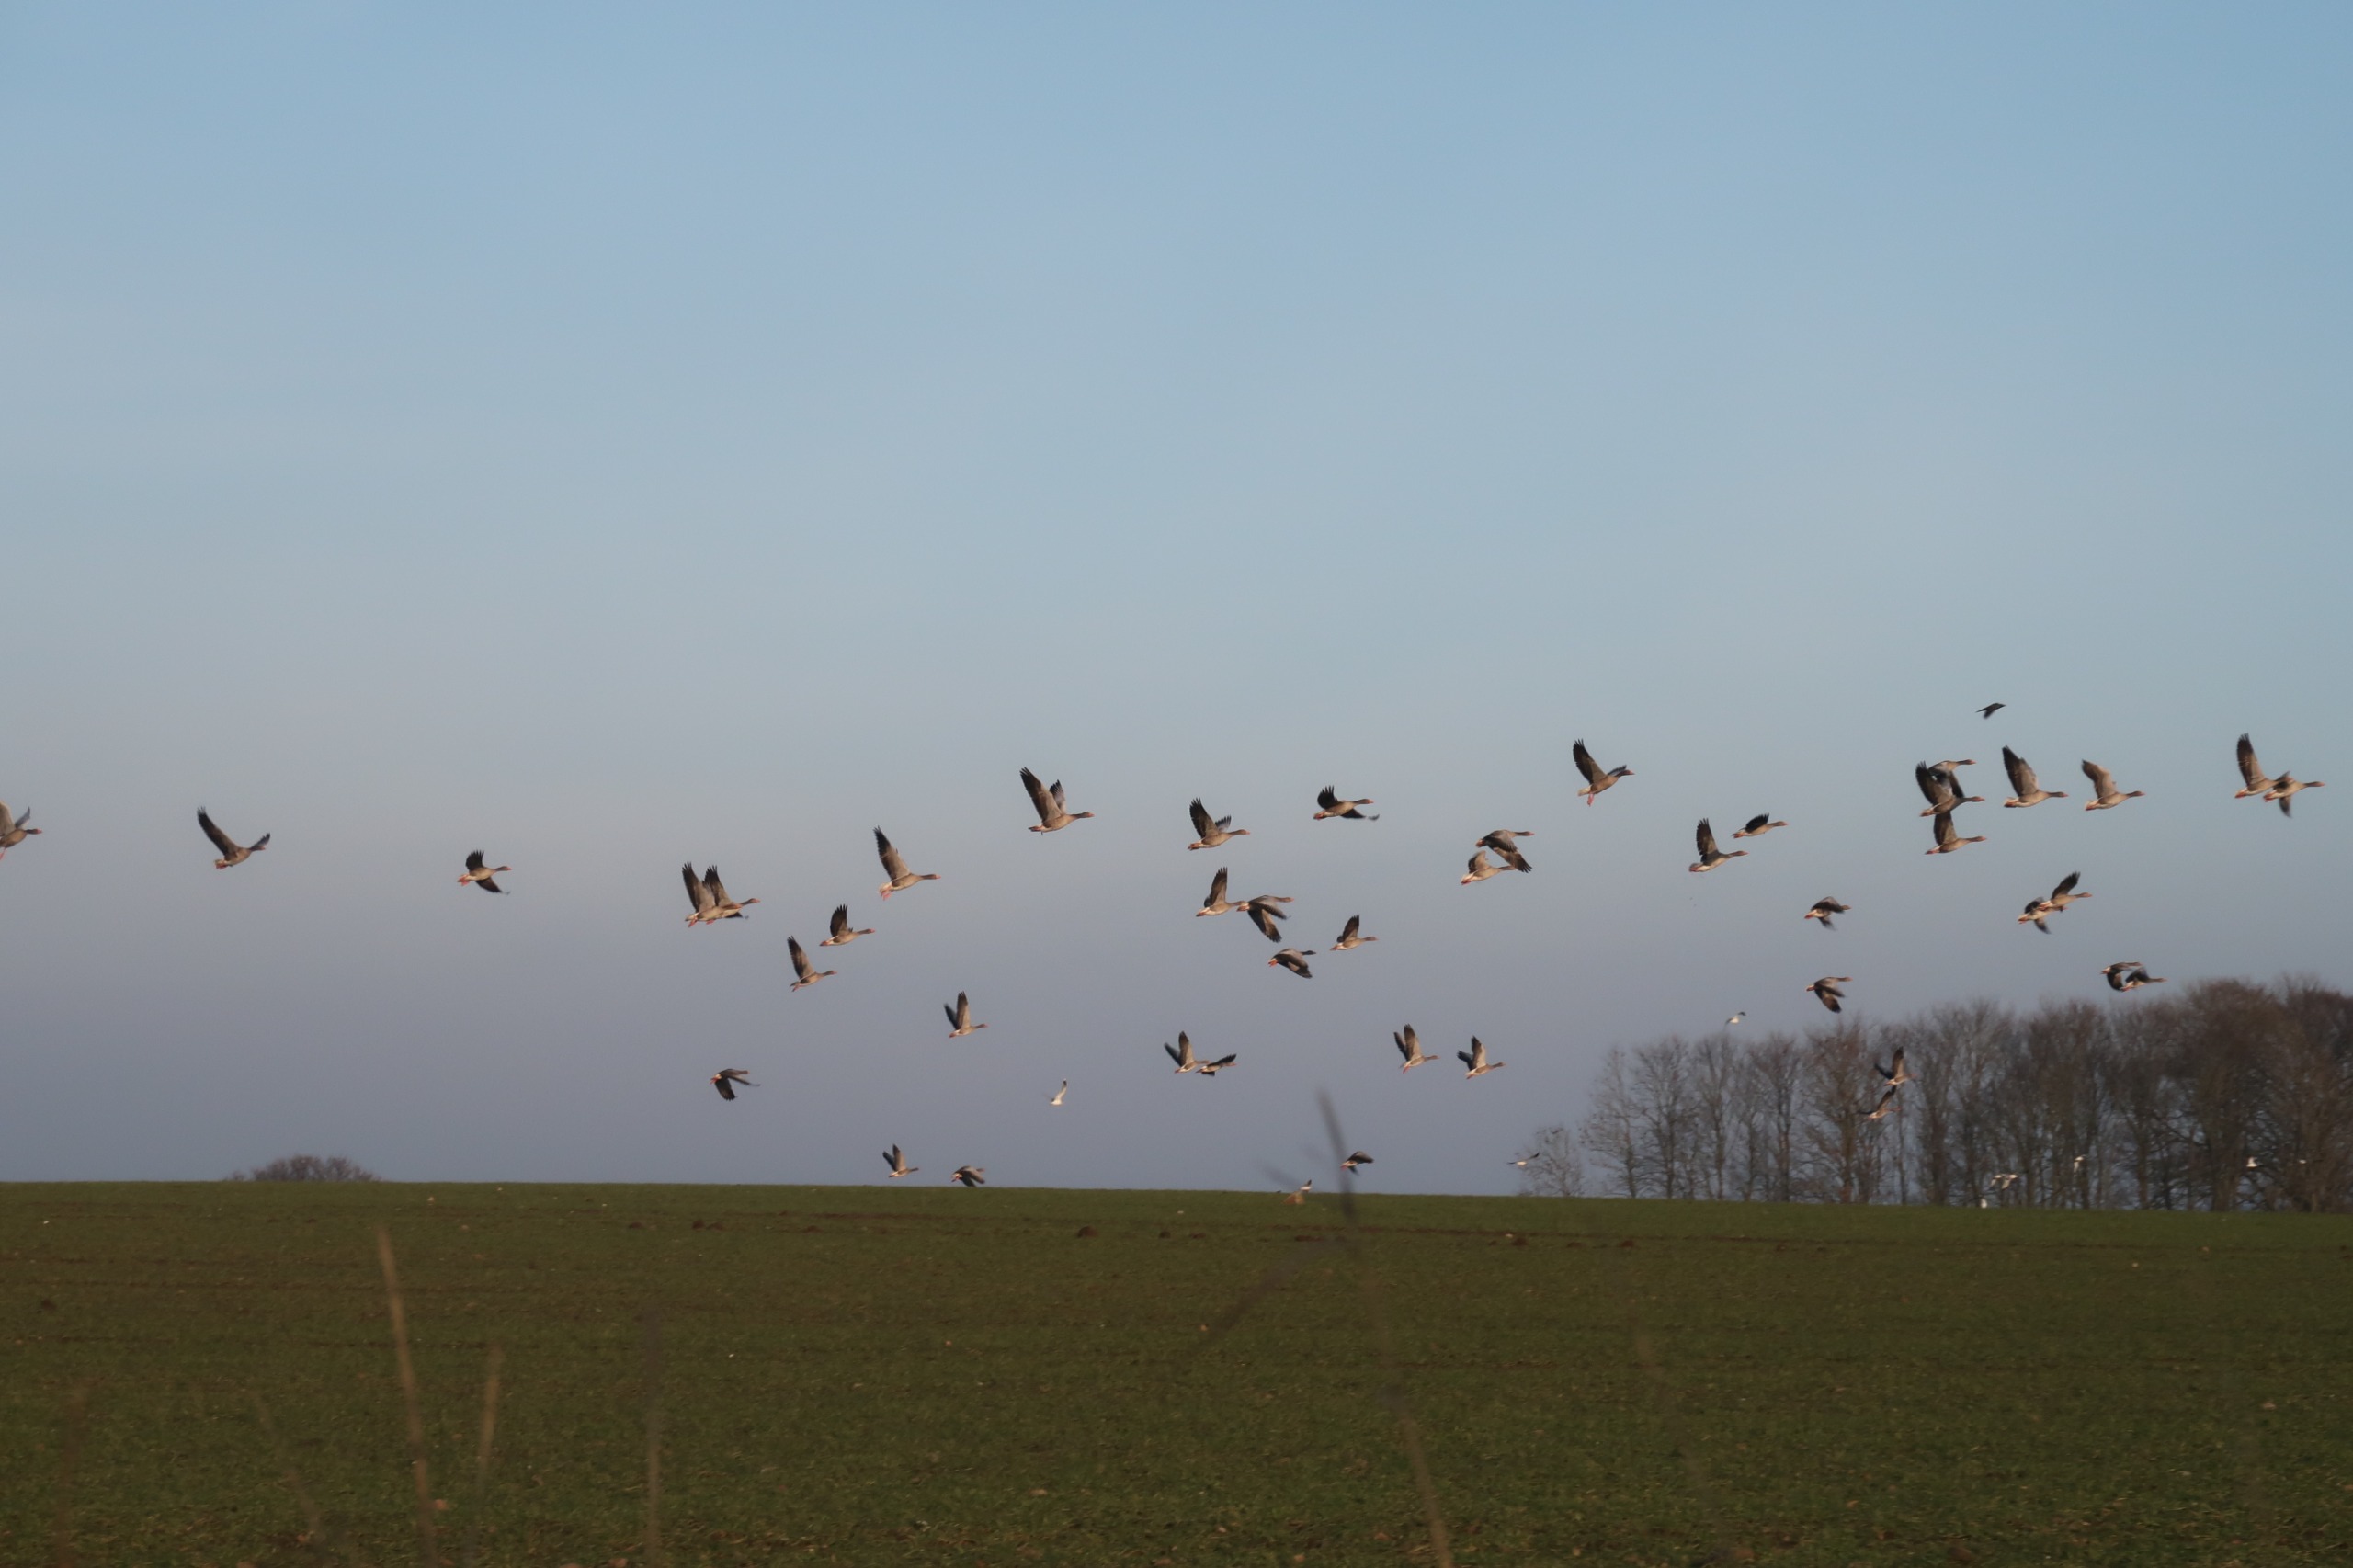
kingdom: Animalia
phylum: Chordata
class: Aves
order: Anseriformes
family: Anatidae
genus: Anser
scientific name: Anser anser
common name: Grågås
